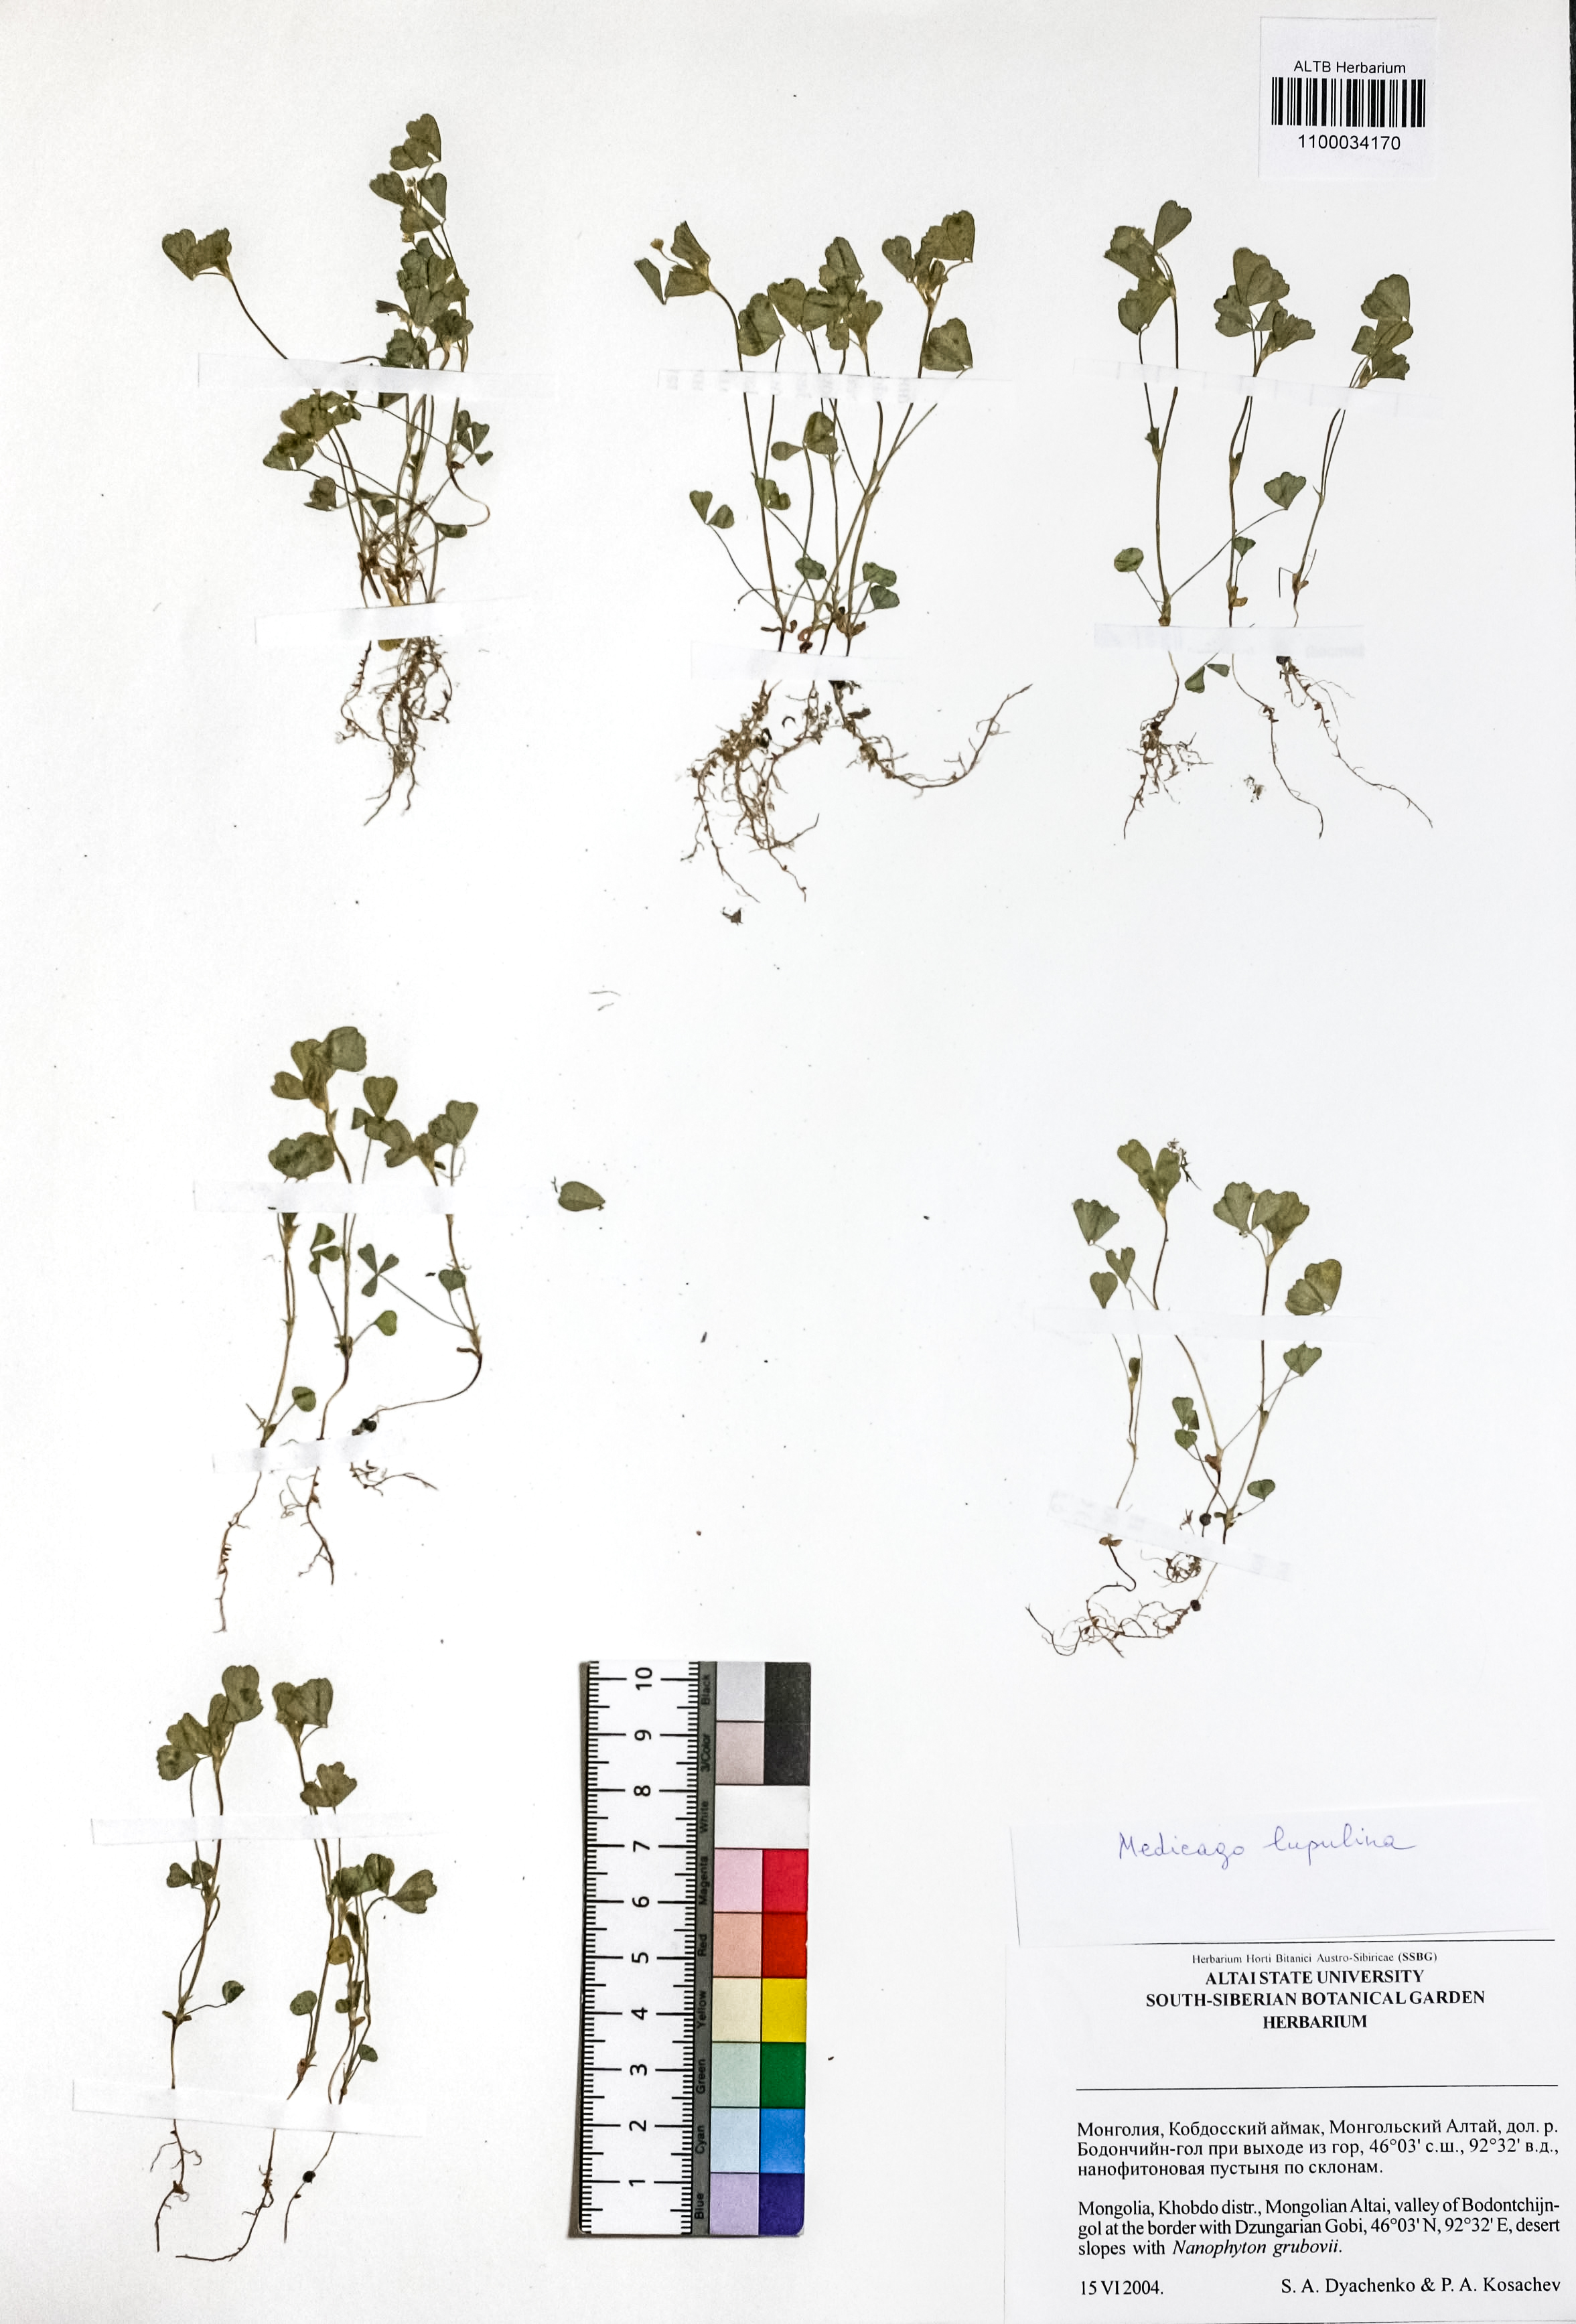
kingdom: Plantae
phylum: Tracheophyta
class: Magnoliopsida
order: Fabales
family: Fabaceae
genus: Medicago
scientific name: Medicago lupulina
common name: Black medick
